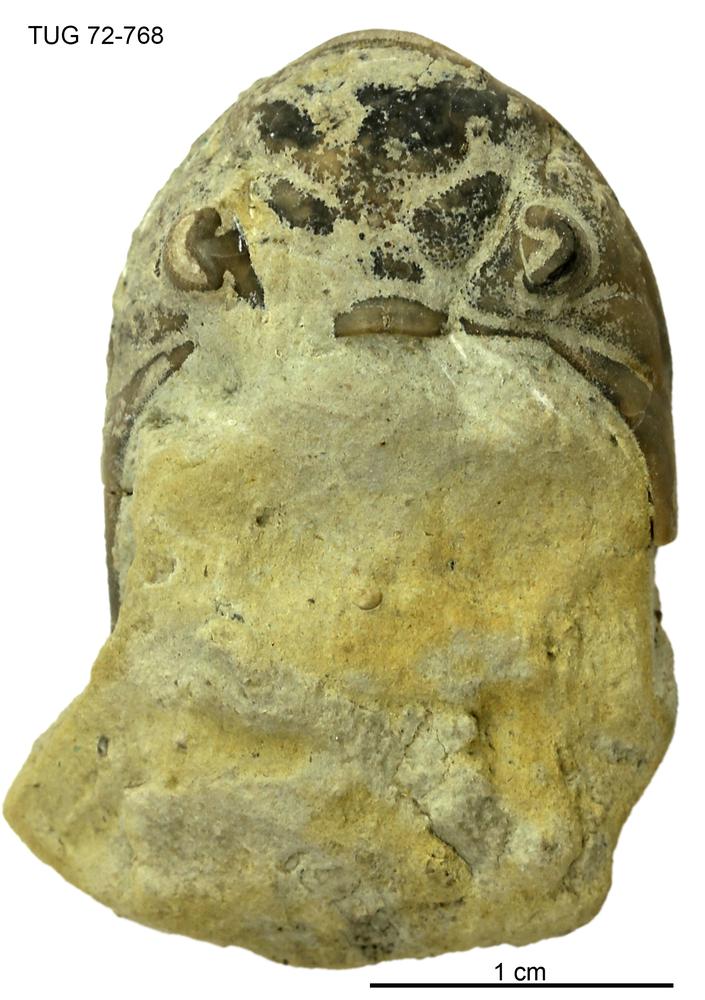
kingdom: Animalia
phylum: Arthropoda
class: Trilobita
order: Phacopida
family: Pterygometopidae
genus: Chasmops
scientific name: Chasmops
